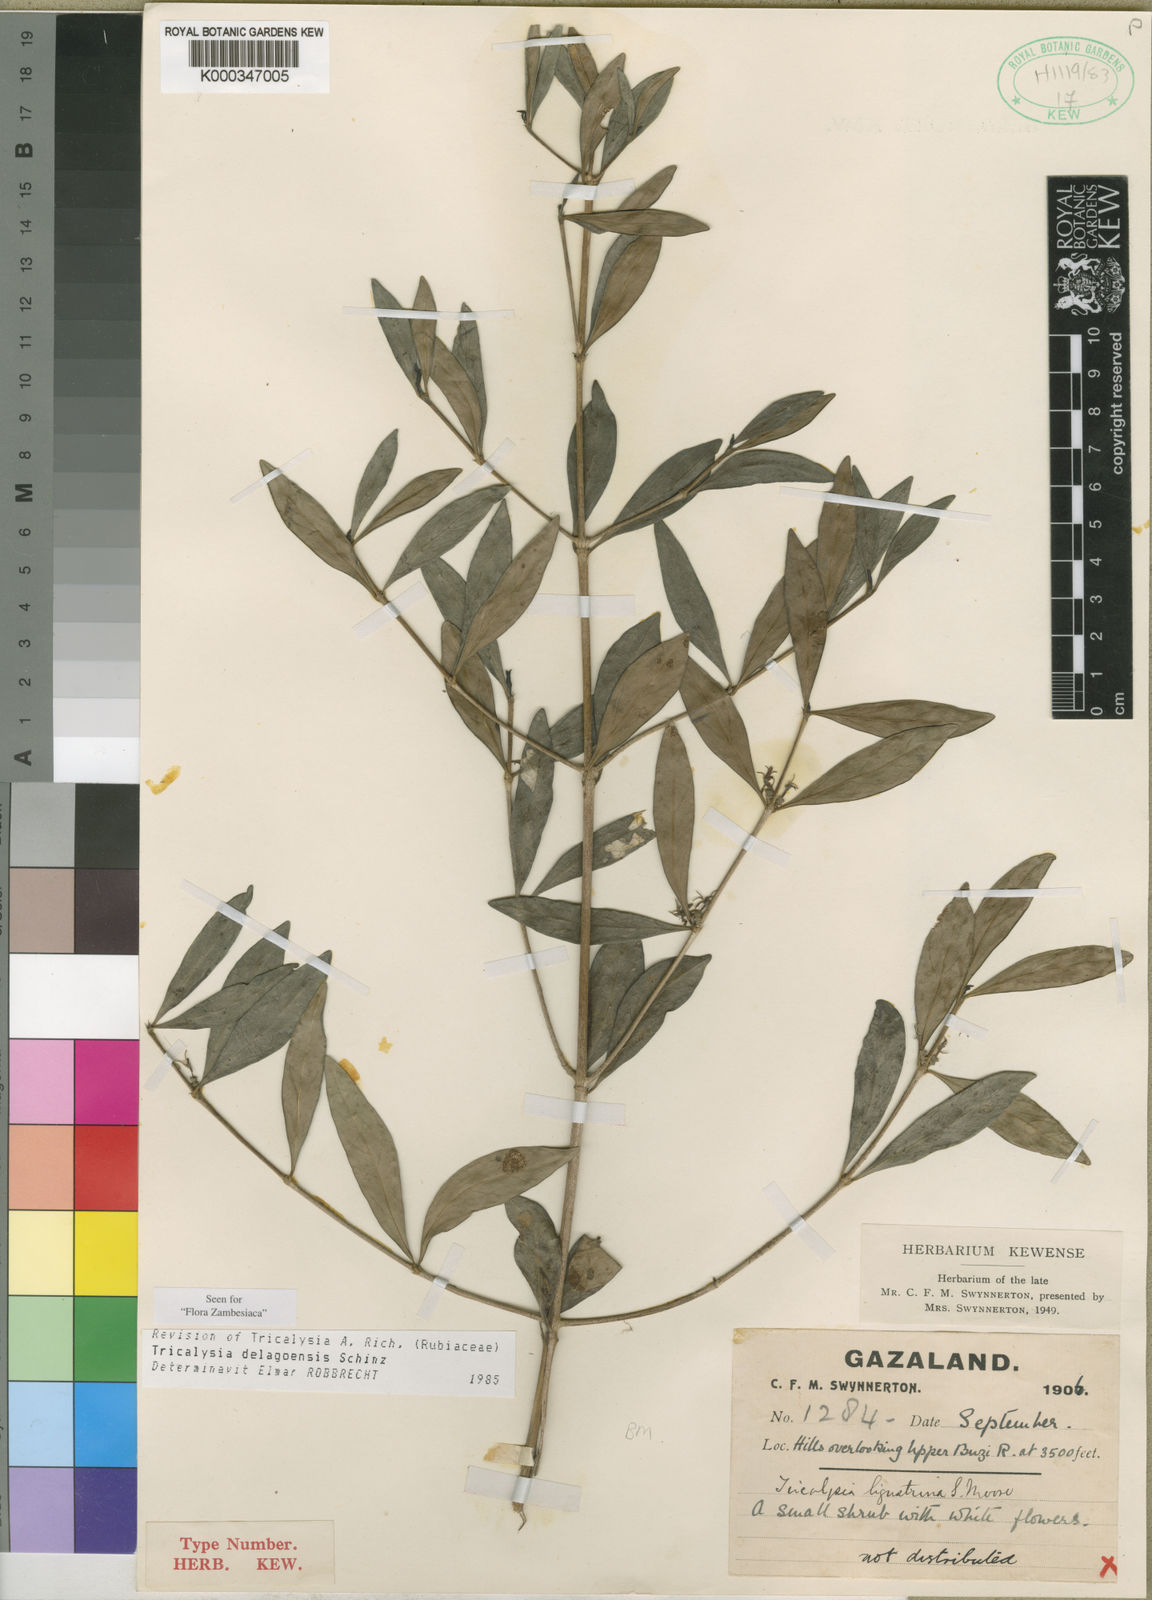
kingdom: Plantae
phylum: Tracheophyta
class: Magnoliopsida
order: Gentianales
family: Rubiaceae
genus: Tricalysia
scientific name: Tricalysia delagoensis
